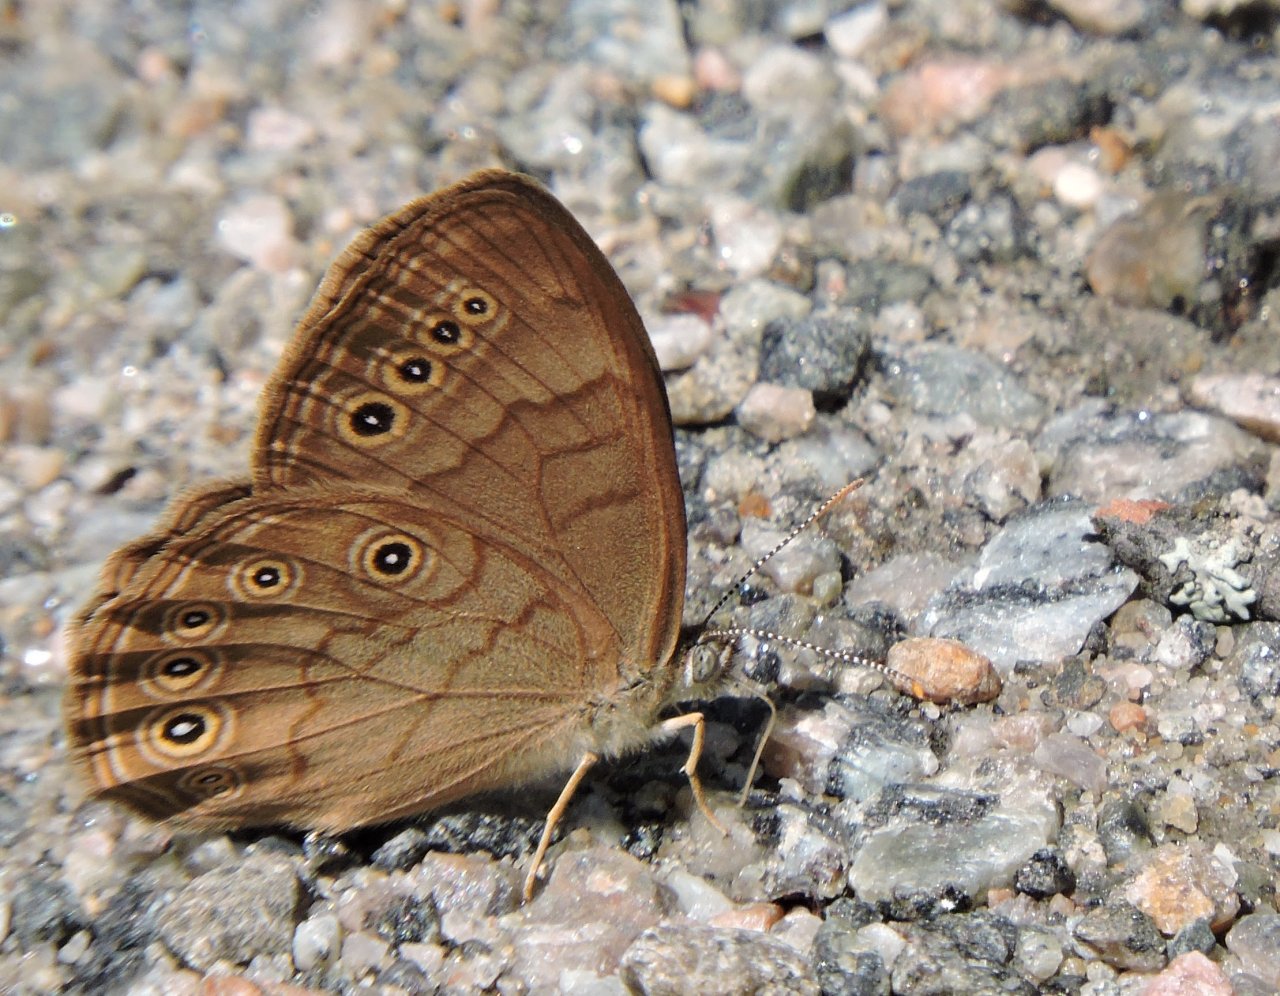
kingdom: Animalia
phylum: Arthropoda
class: Insecta
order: Lepidoptera
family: Nymphalidae
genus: Lethe
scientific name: Lethe eurydice
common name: Eyed Brown
